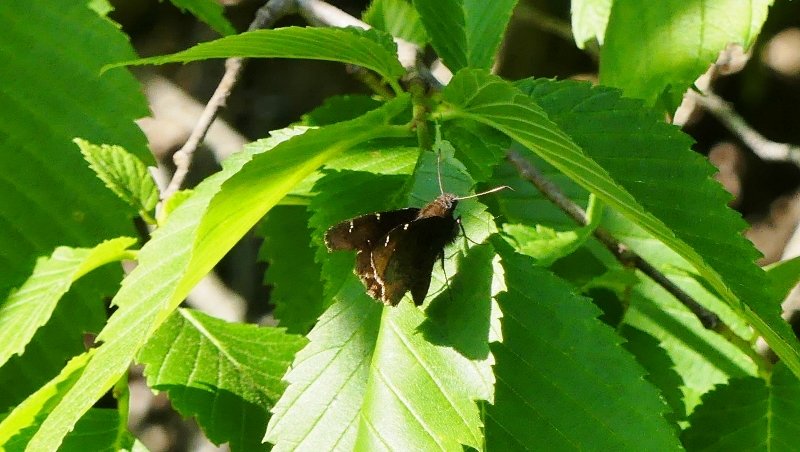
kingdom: Animalia
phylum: Arthropoda
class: Insecta
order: Lepidoptera
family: Hesperiidae
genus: Autochton
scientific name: Autochton
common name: Northern Cloudywing
